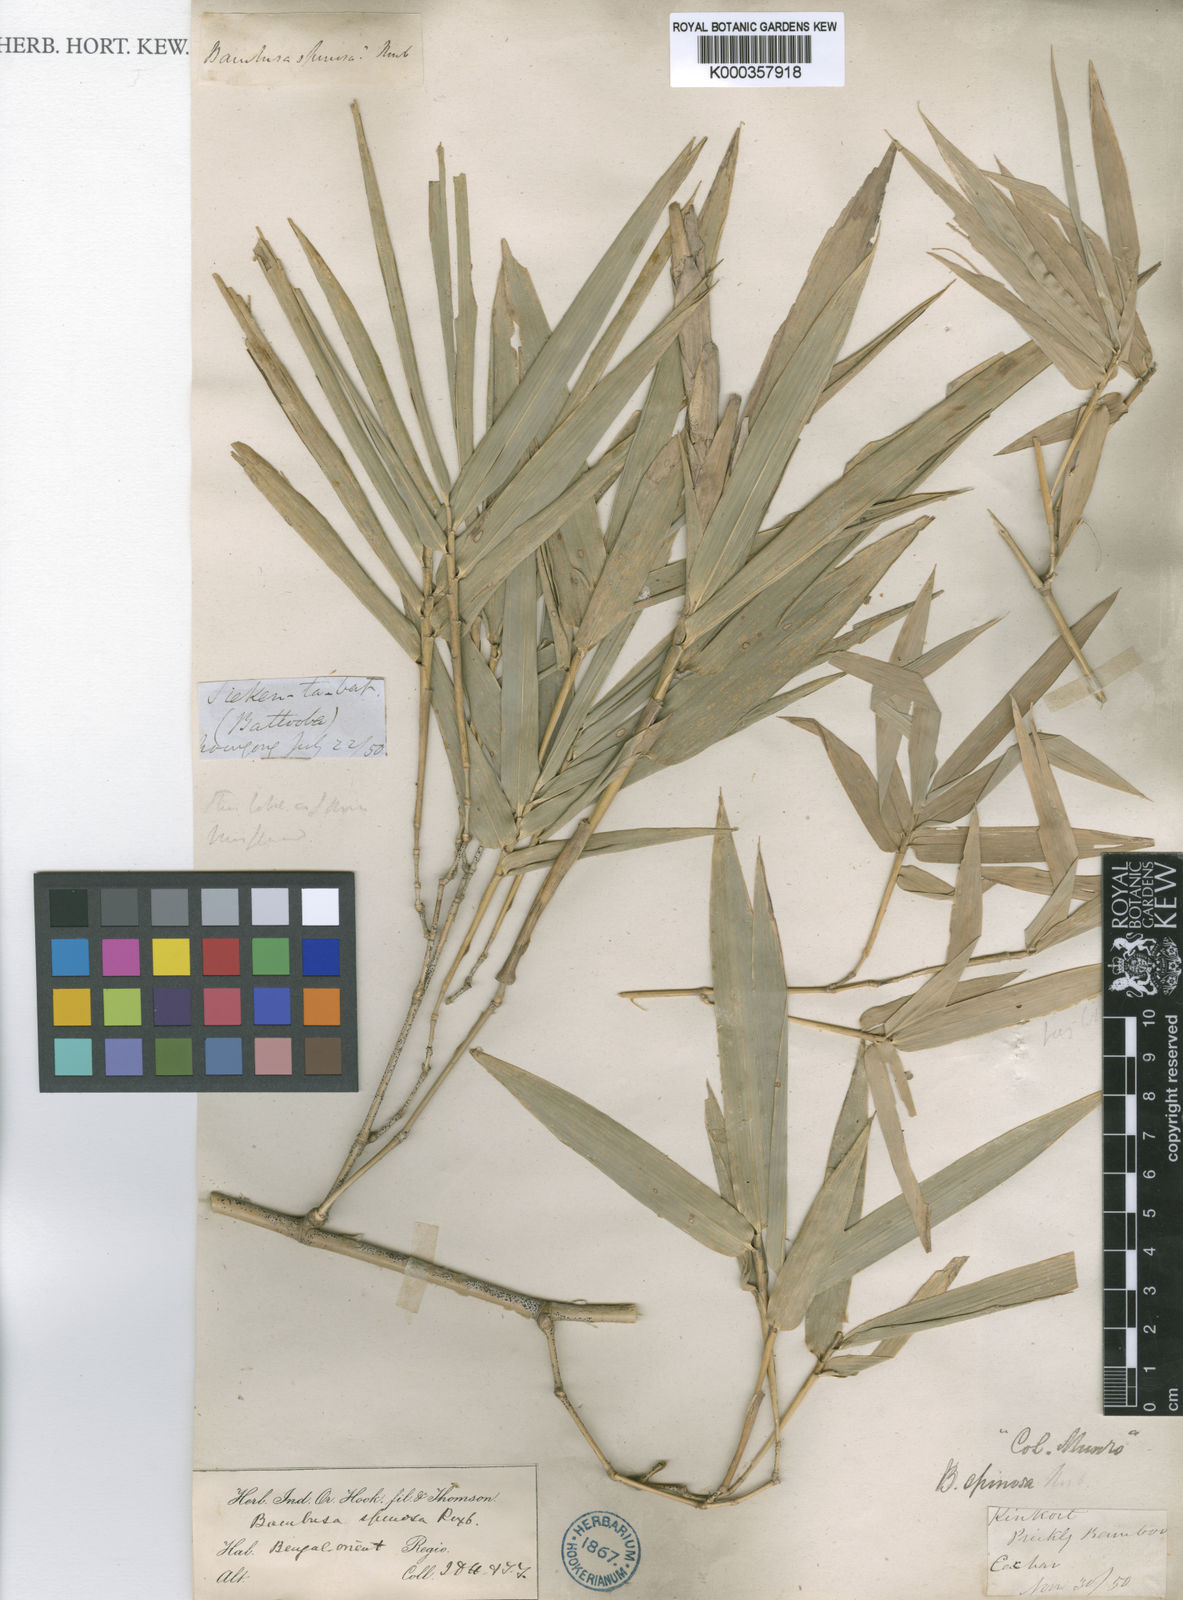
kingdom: Plantae
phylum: Tracheophyta
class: Liliopsida
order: Poales
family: Poaceae
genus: Bambusa
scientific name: Bambusa
